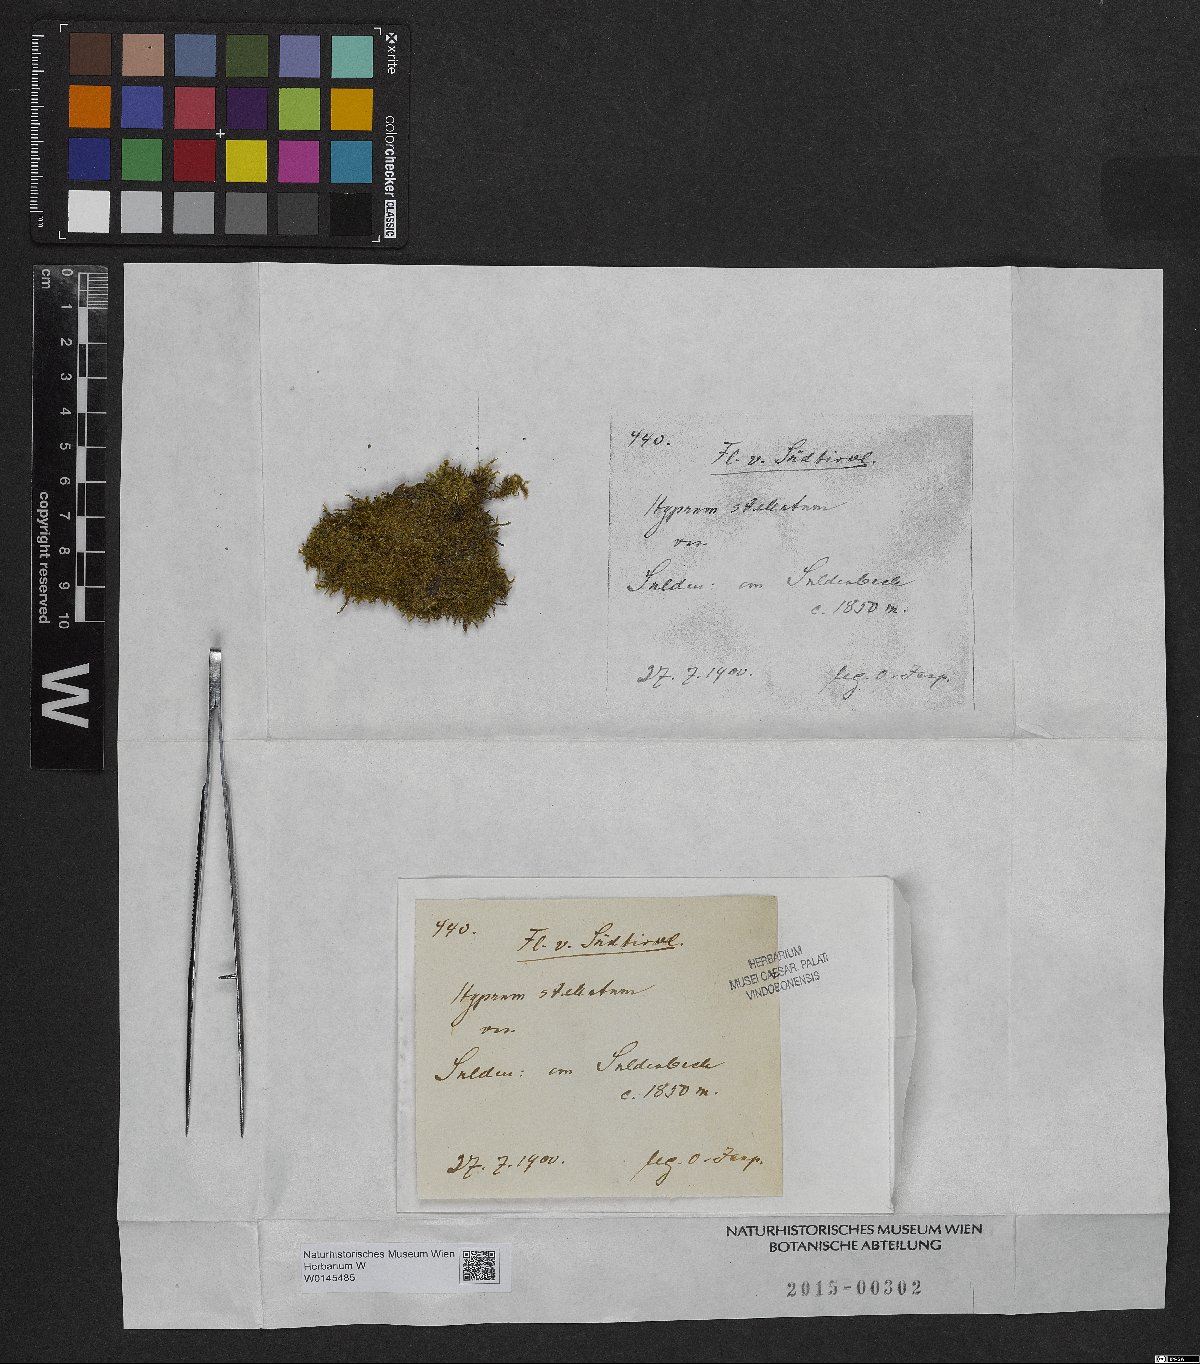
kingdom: Plantae
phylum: Bryophyta
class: Bryopsida
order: Hypnales
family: Amblystegiaceae
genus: Campylium
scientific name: Campylium stellatum
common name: Yellow starry fen moss
